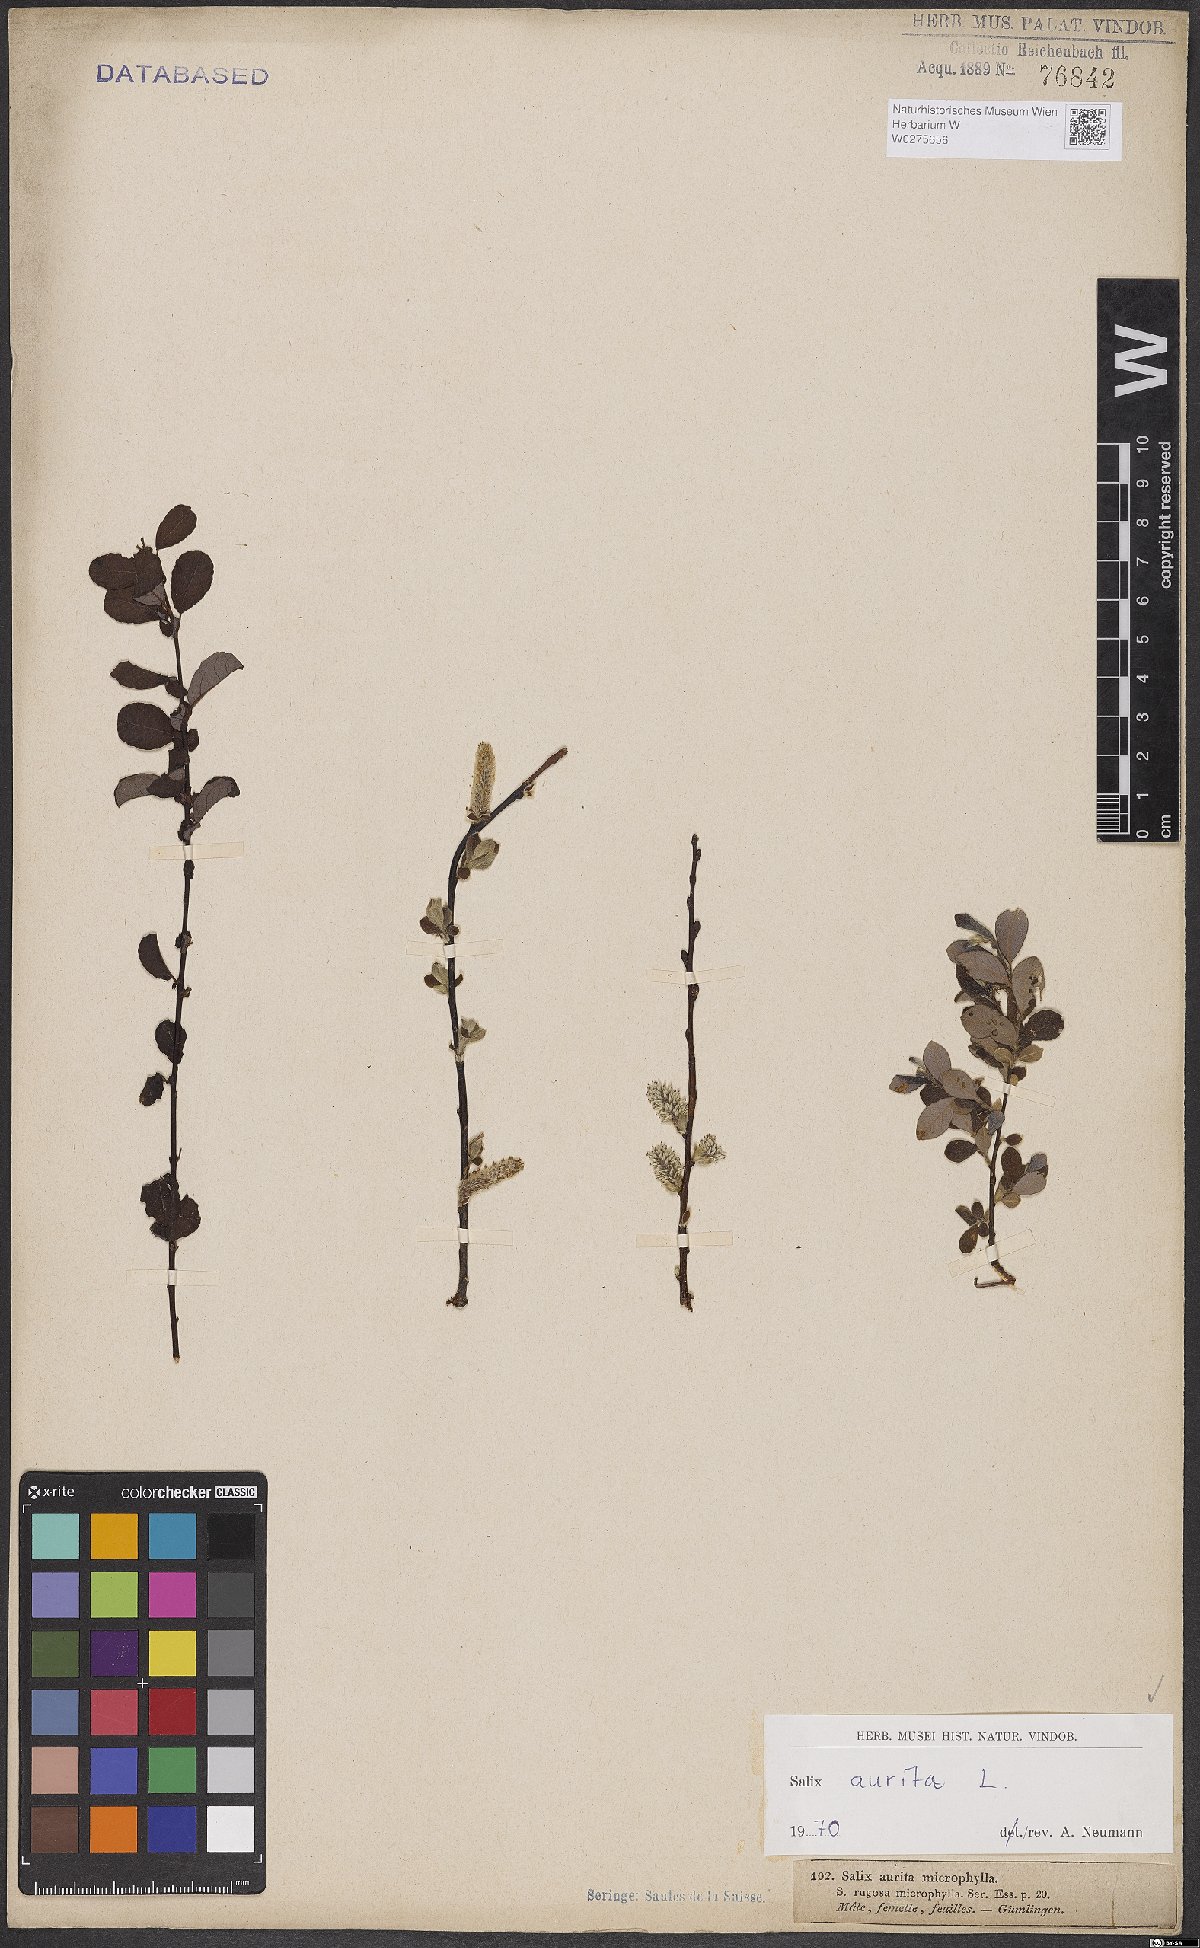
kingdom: Plantae
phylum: Tracheophyta
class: Magnoliopsida
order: Malpighiales
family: Salicaceae
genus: Salix
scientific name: Salix aurita
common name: Eared willow
